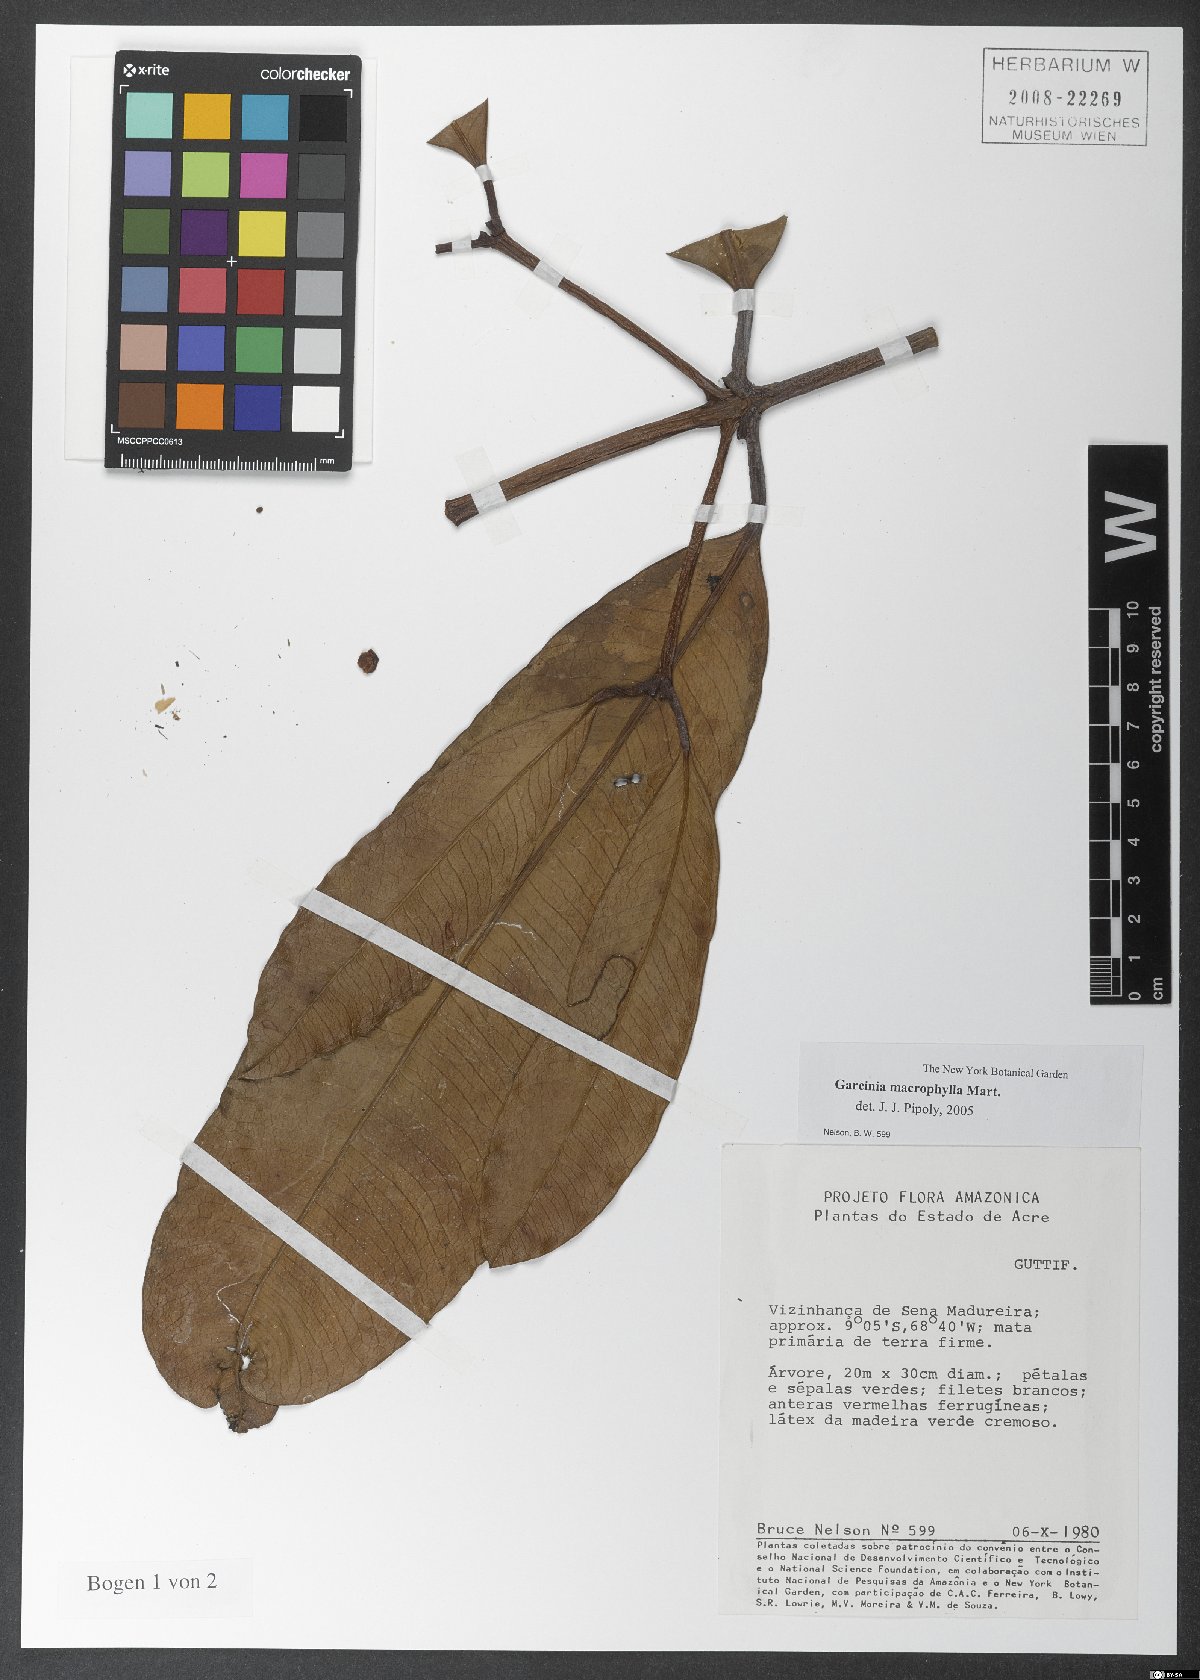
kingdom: Plantae
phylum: Tracheophyta
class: Magnoliopsida
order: Malpighiales
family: Clusiaceae
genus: Garcinia
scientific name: Garcinia macrophylla
